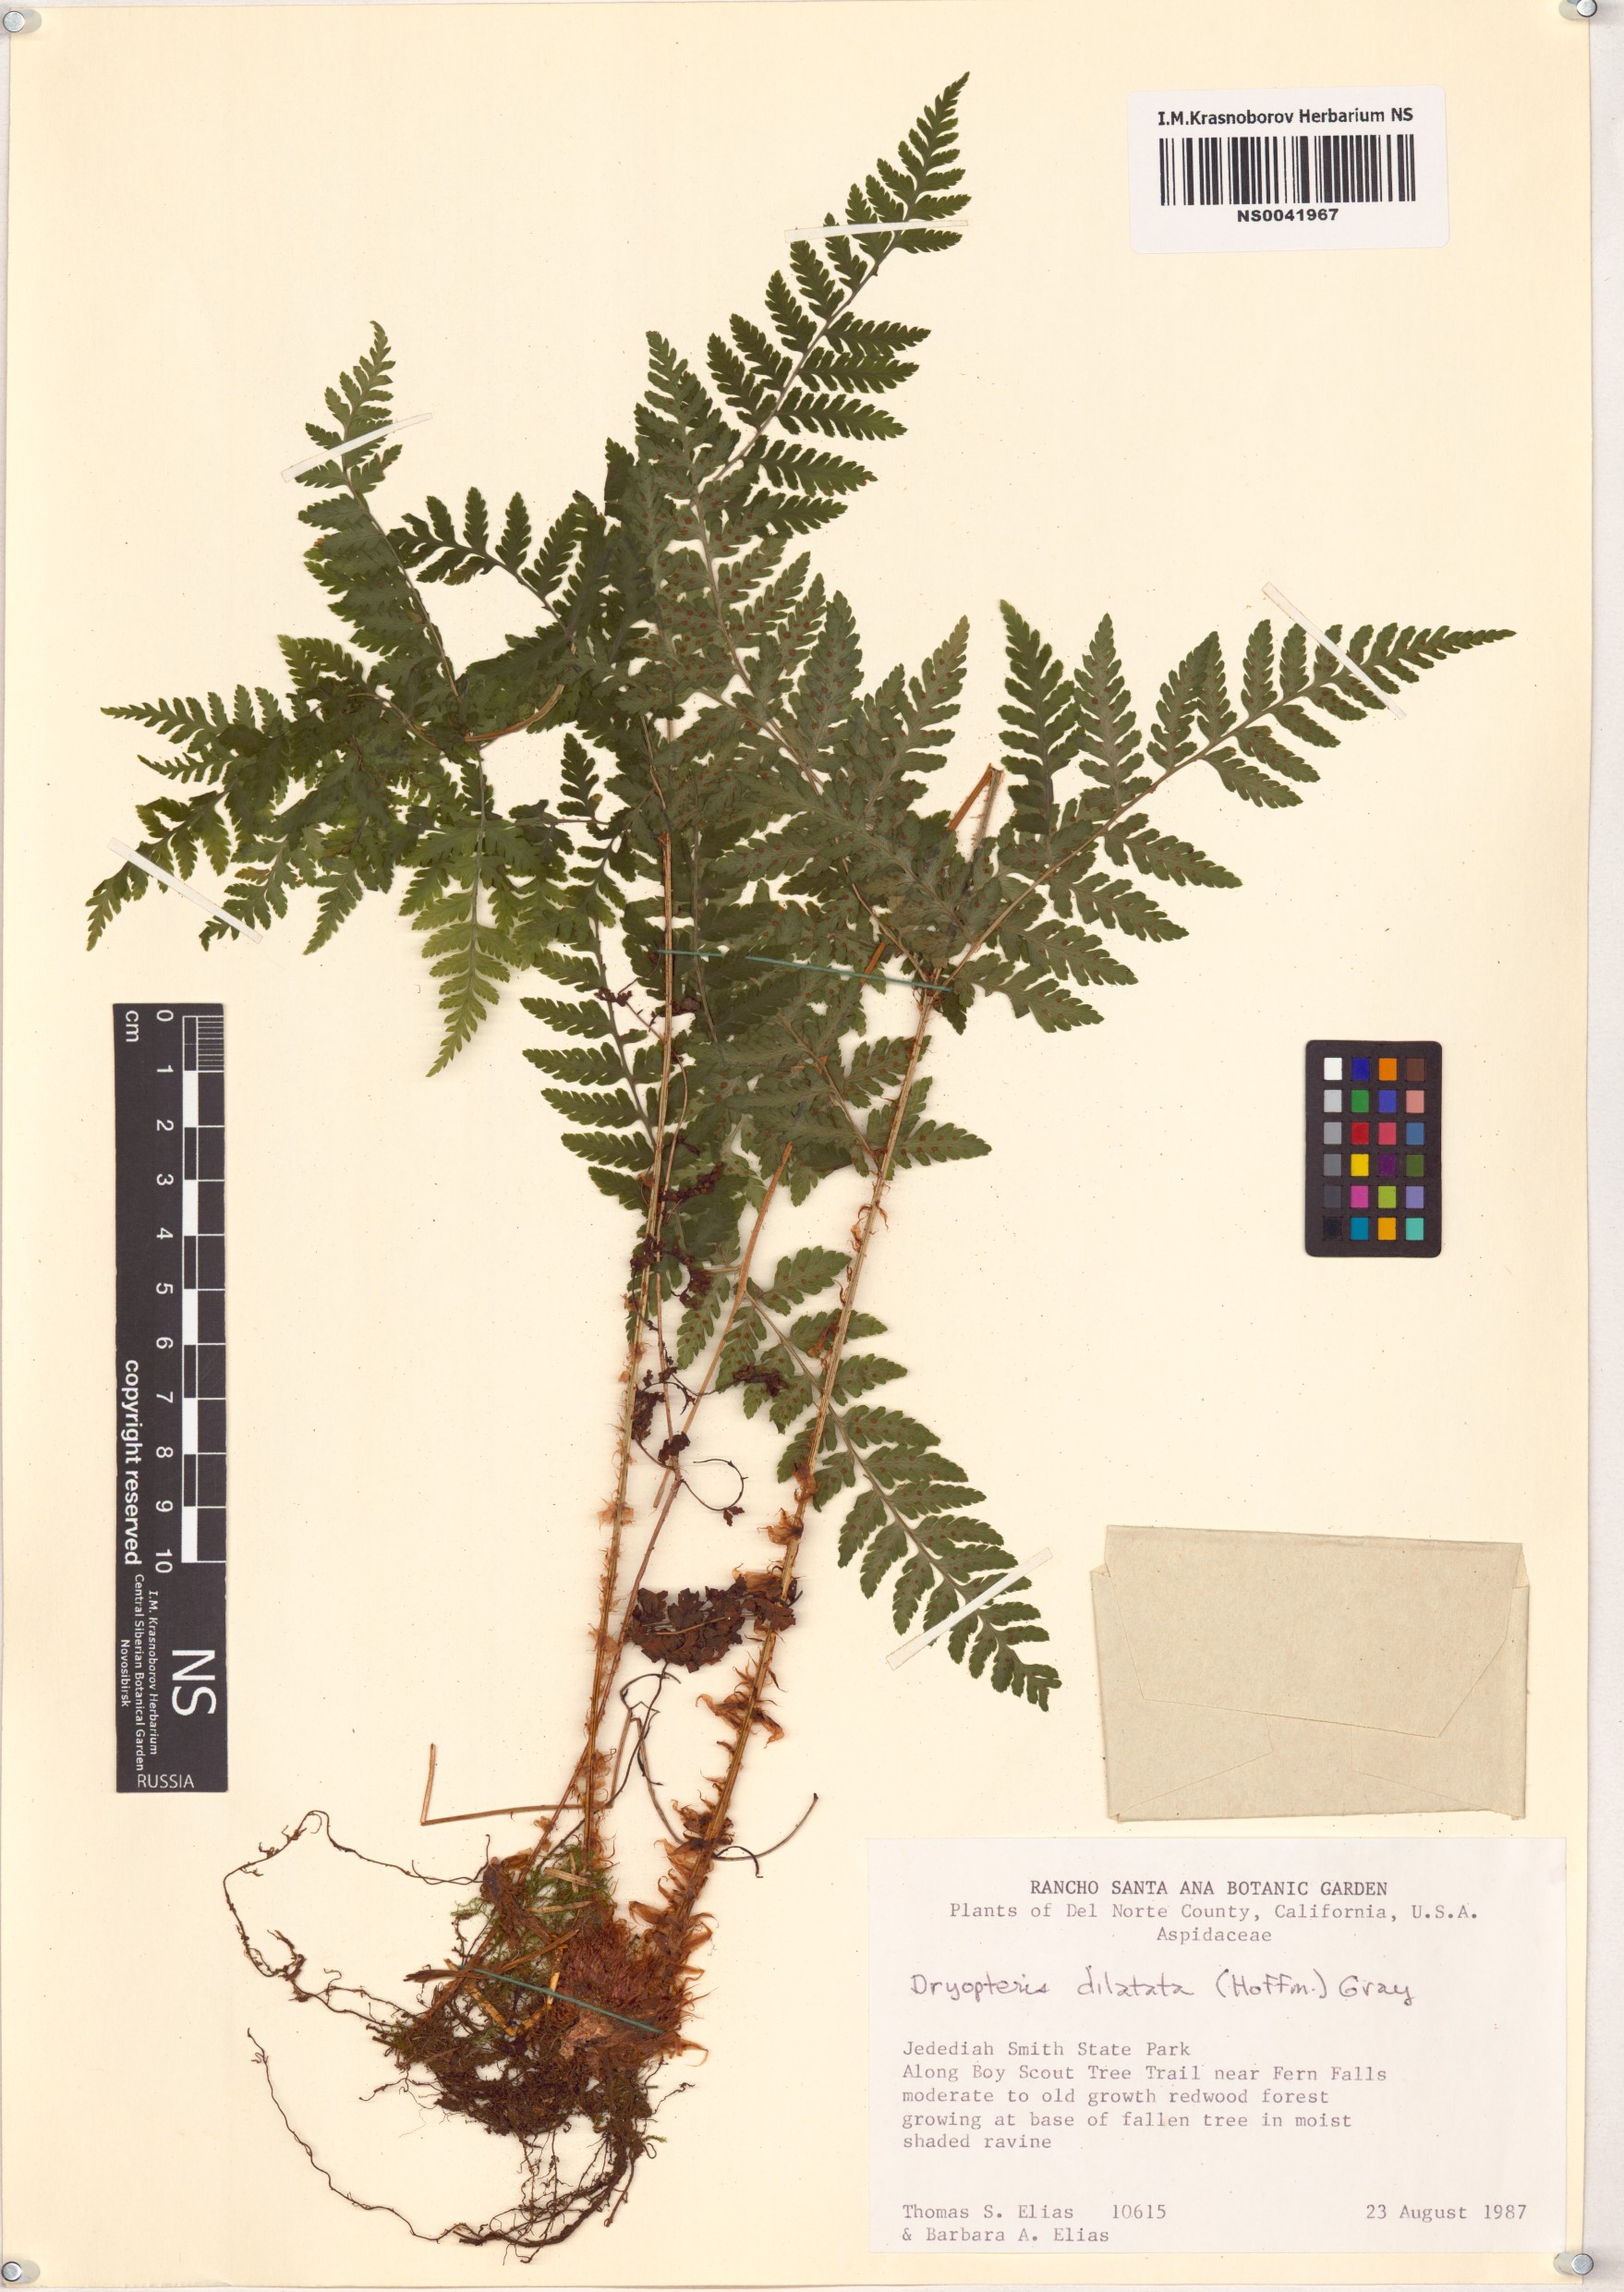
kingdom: Plantae
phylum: Tracheophyta
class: Polypodiopsida
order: Polypodiales
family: Dryopteridaceae
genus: Dryopteris
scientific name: Dryopteris dilatata
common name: Broad buckler-fern
